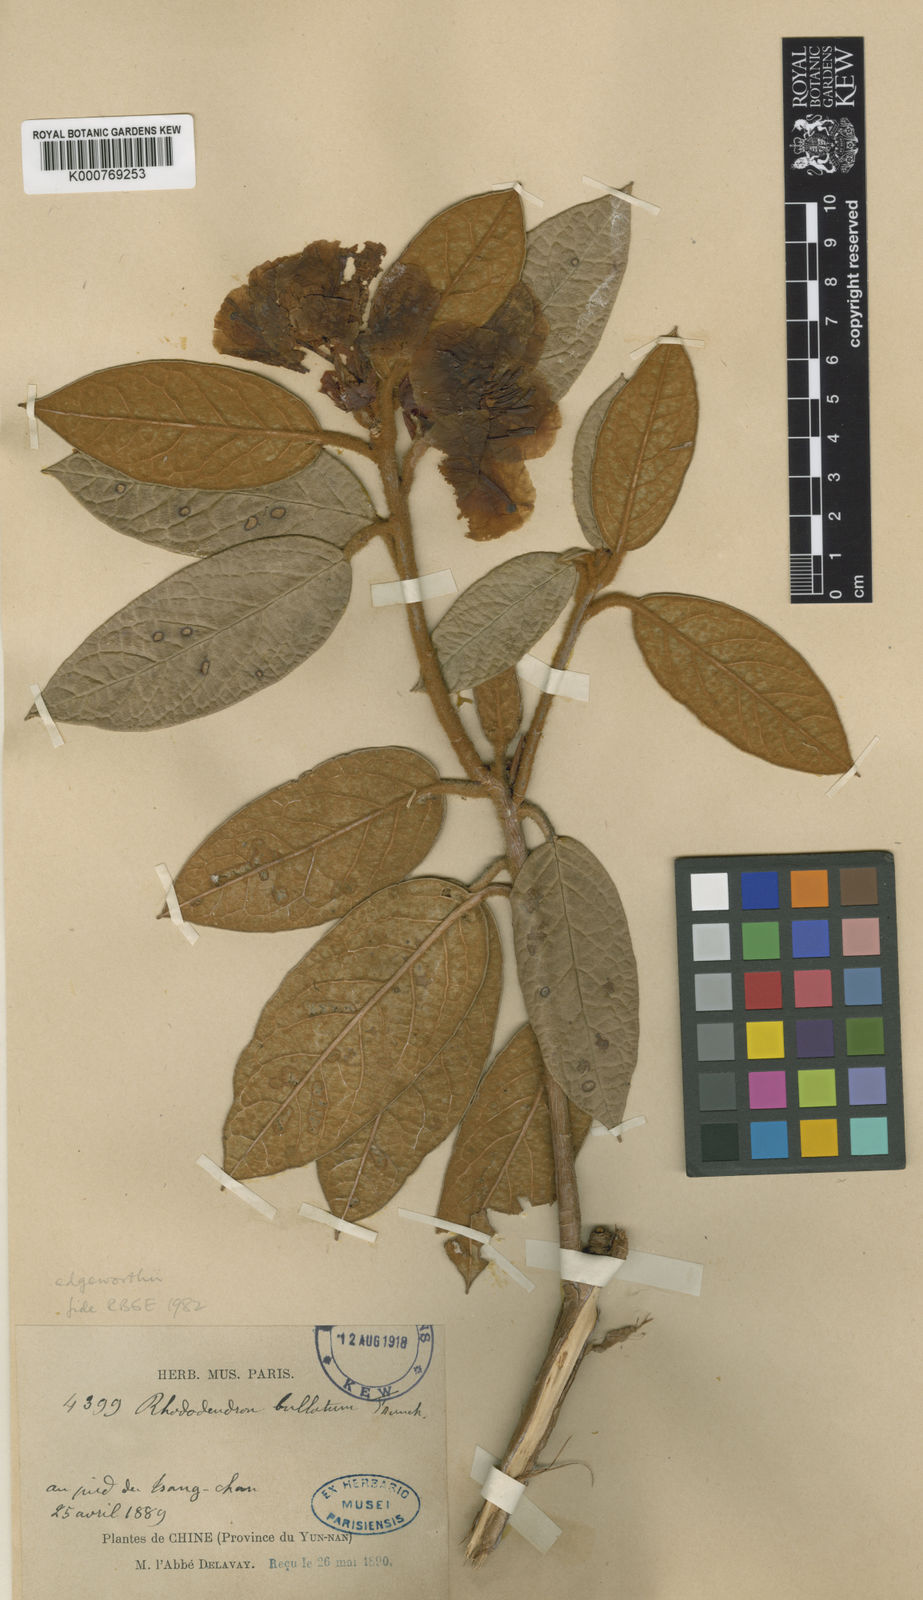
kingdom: Plantae
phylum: Tracheophyta
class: Magnoliopsida
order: Ericales
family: Ericaceae
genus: Rhododendron
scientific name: Rhododendron edgeworthii
